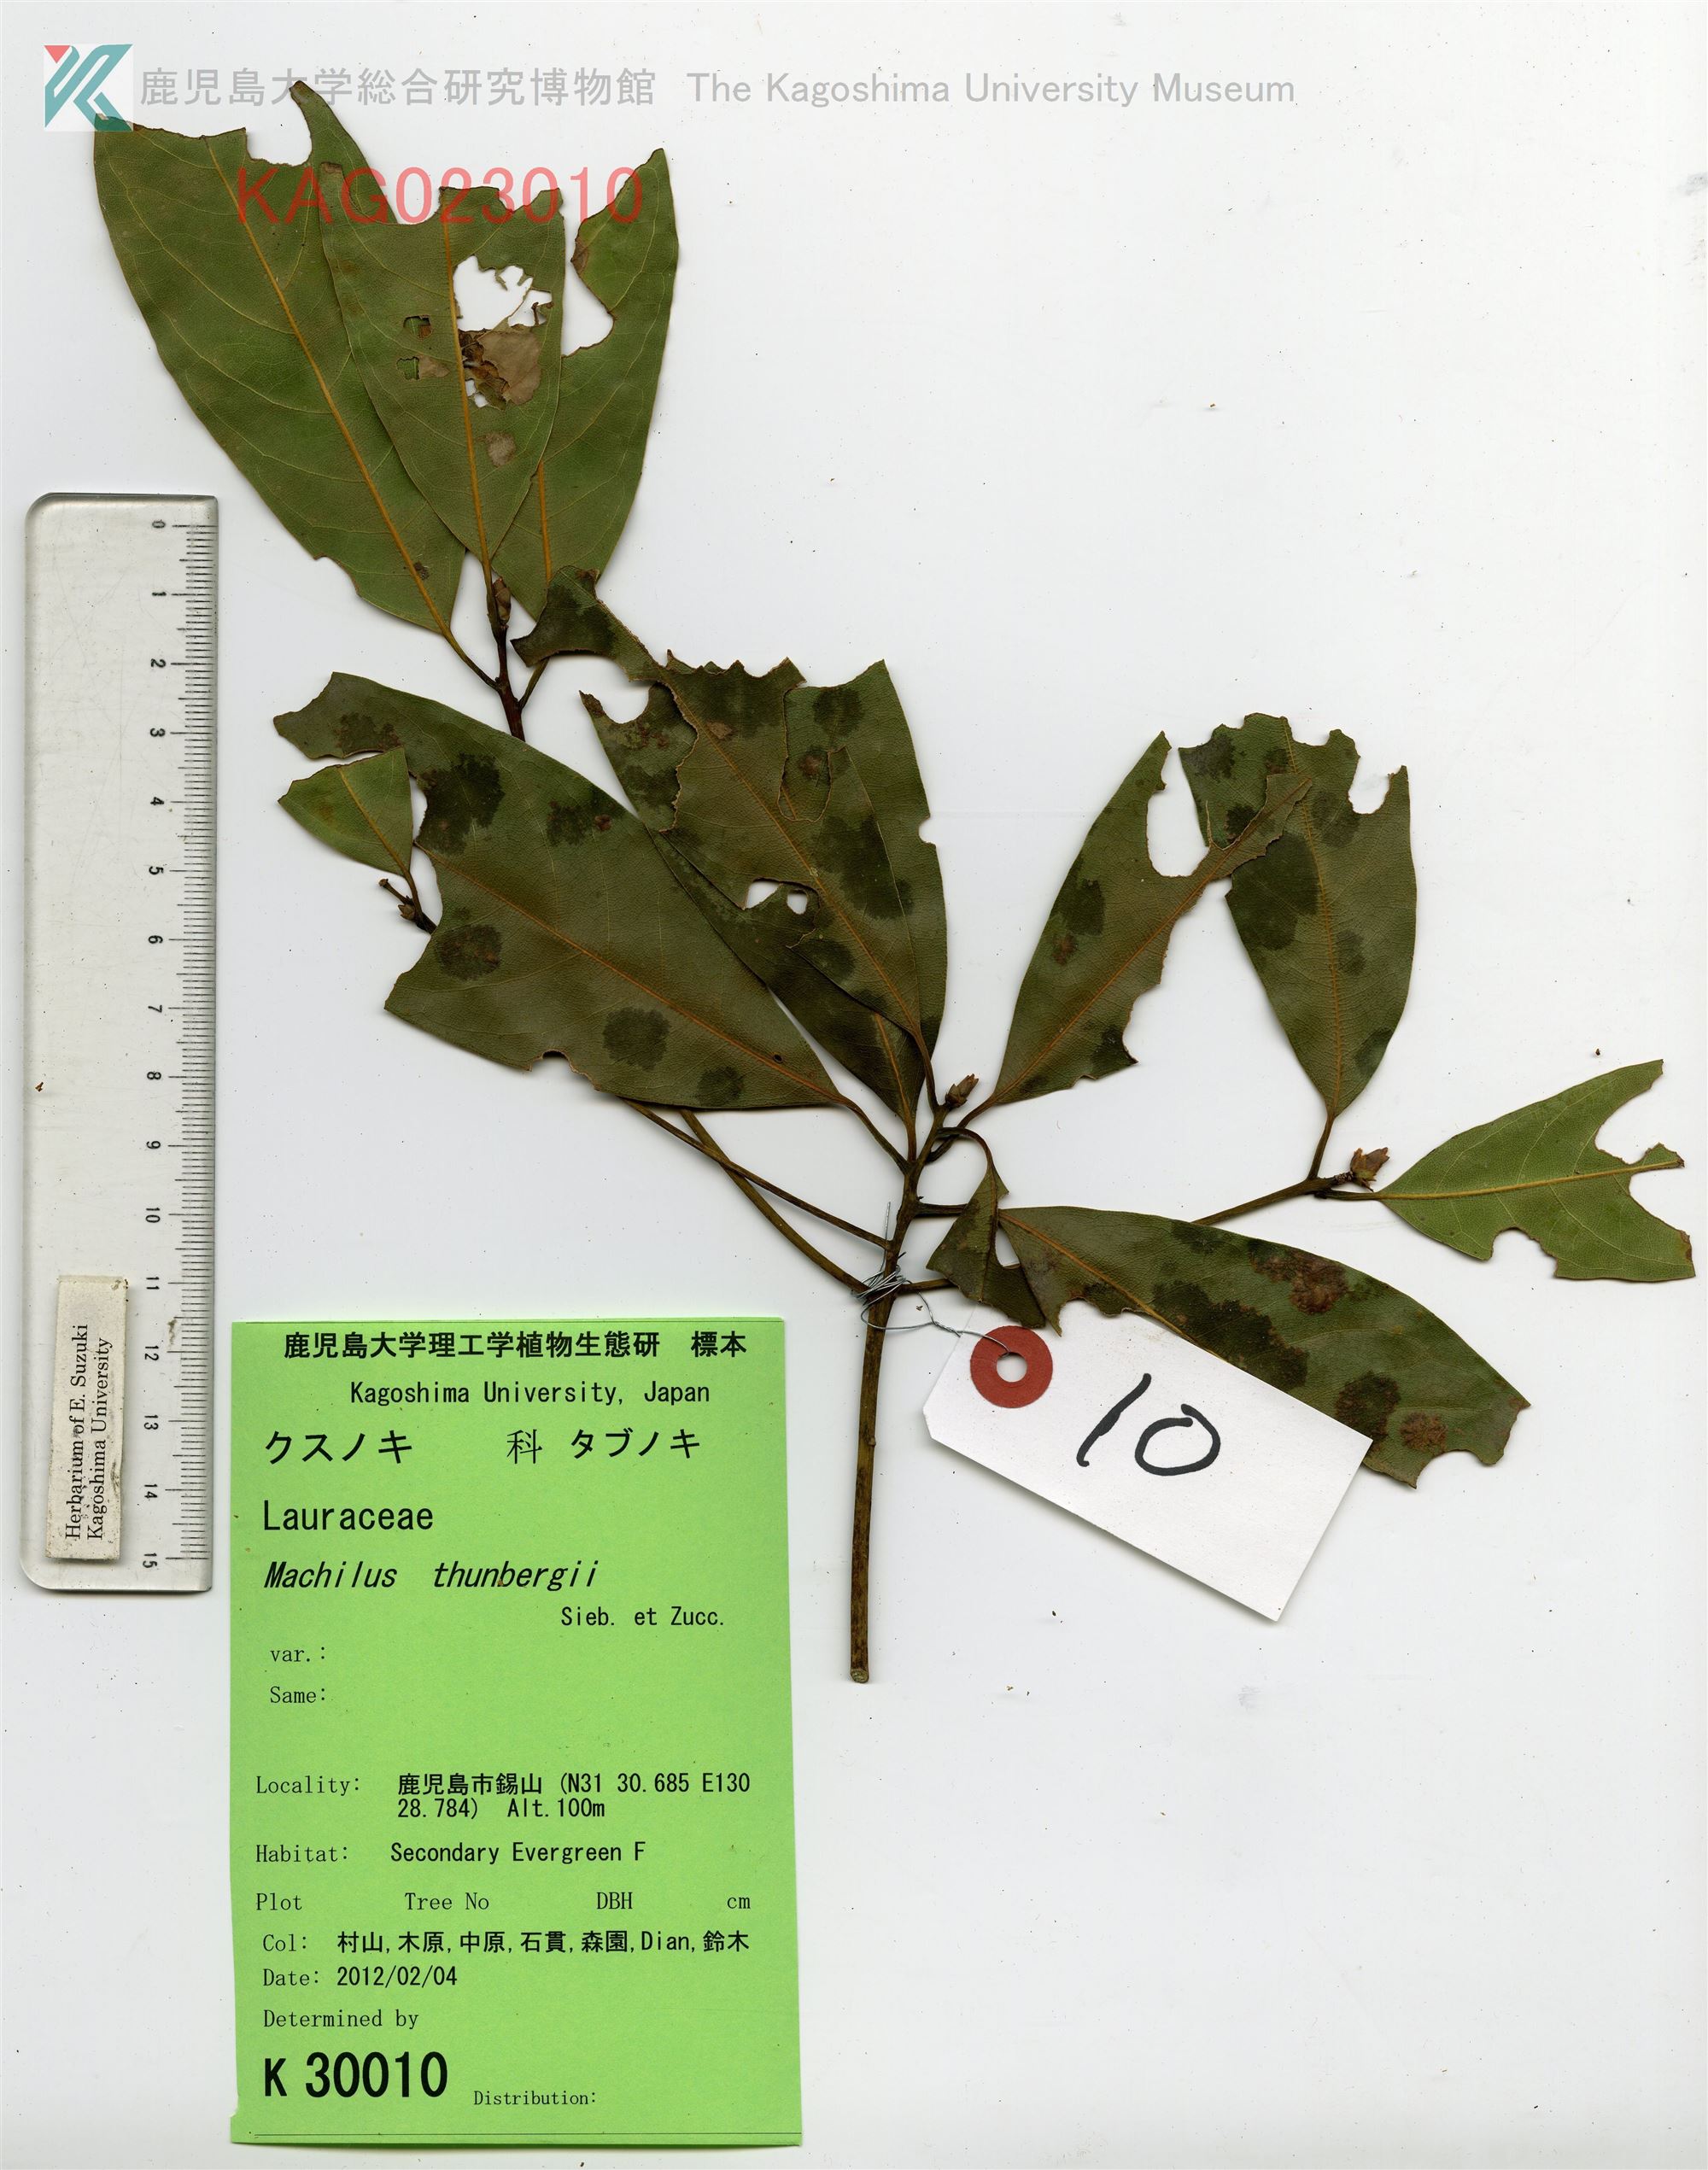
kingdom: Plantae
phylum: Tracheophyta
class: Magnoliopsida
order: Laurales
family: Lauraceae
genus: Machilus
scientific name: Machilus thunbergii
